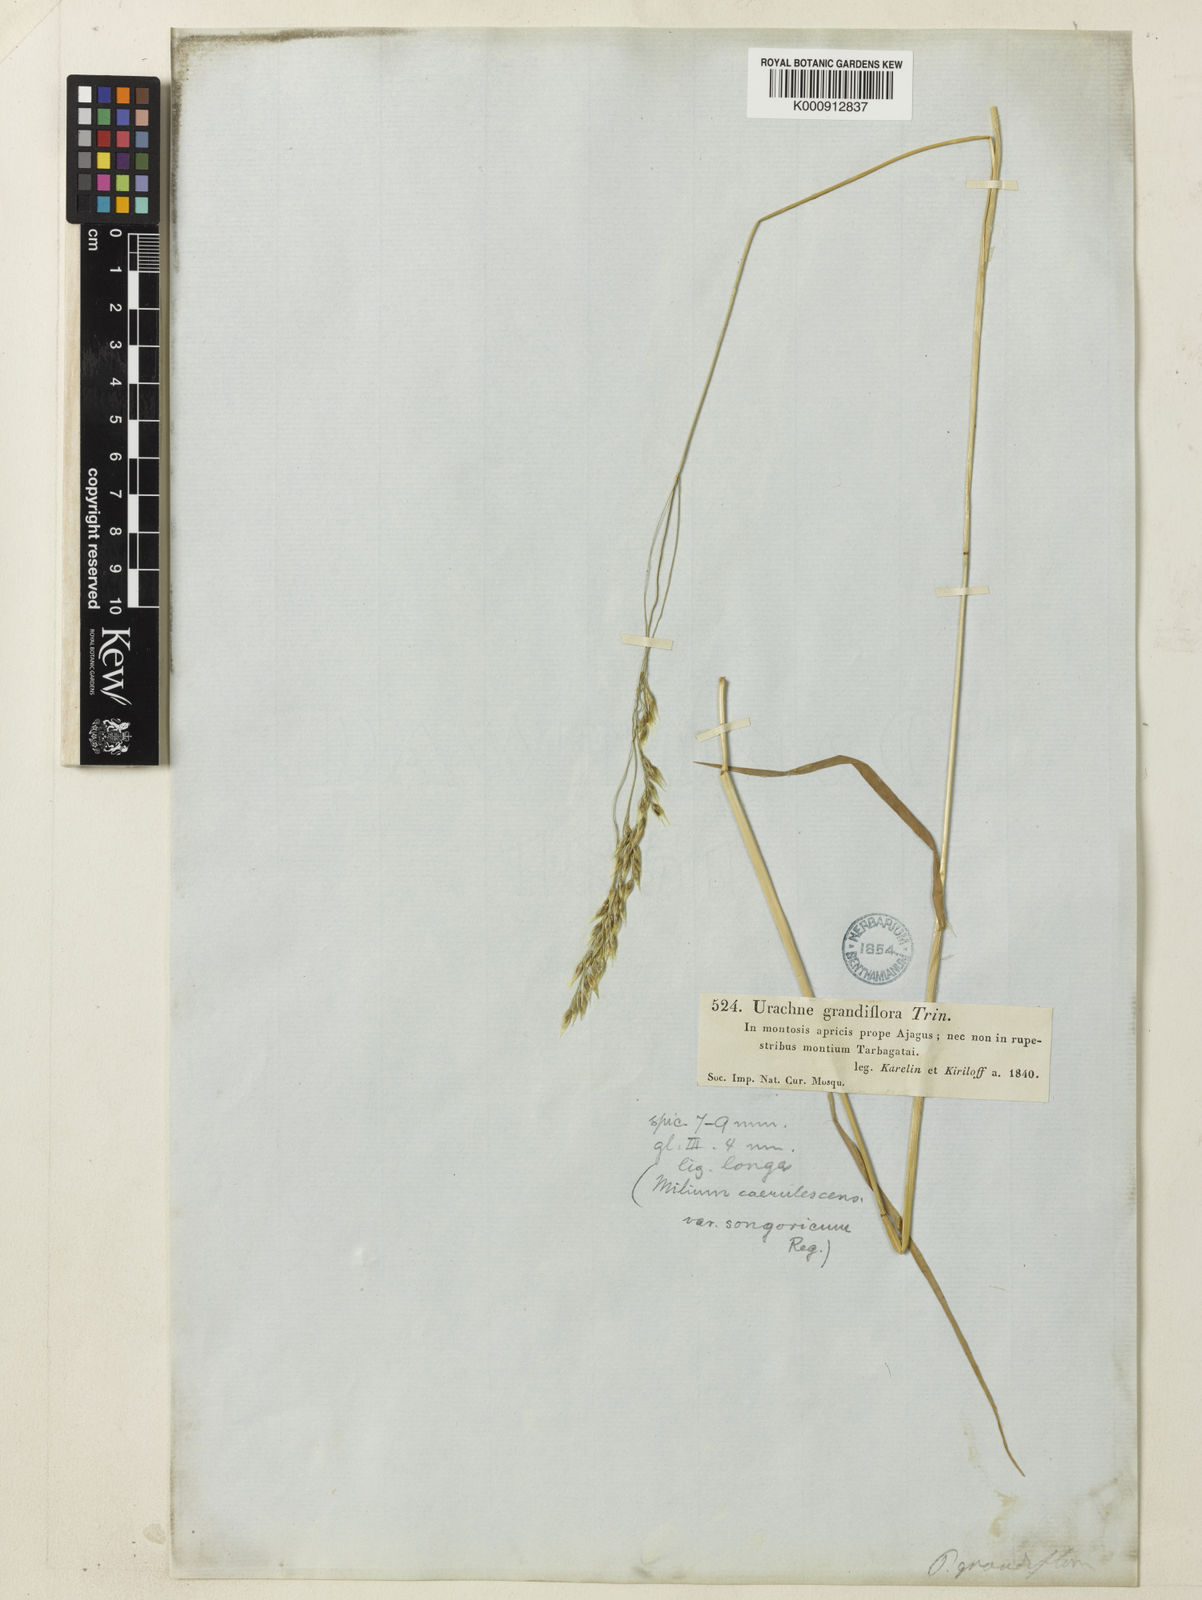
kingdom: Plantae
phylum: Tracheophyta
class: Liliopsida
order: Poales
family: Poaceae
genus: Piptatherum
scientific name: Piptatherum songaricum
